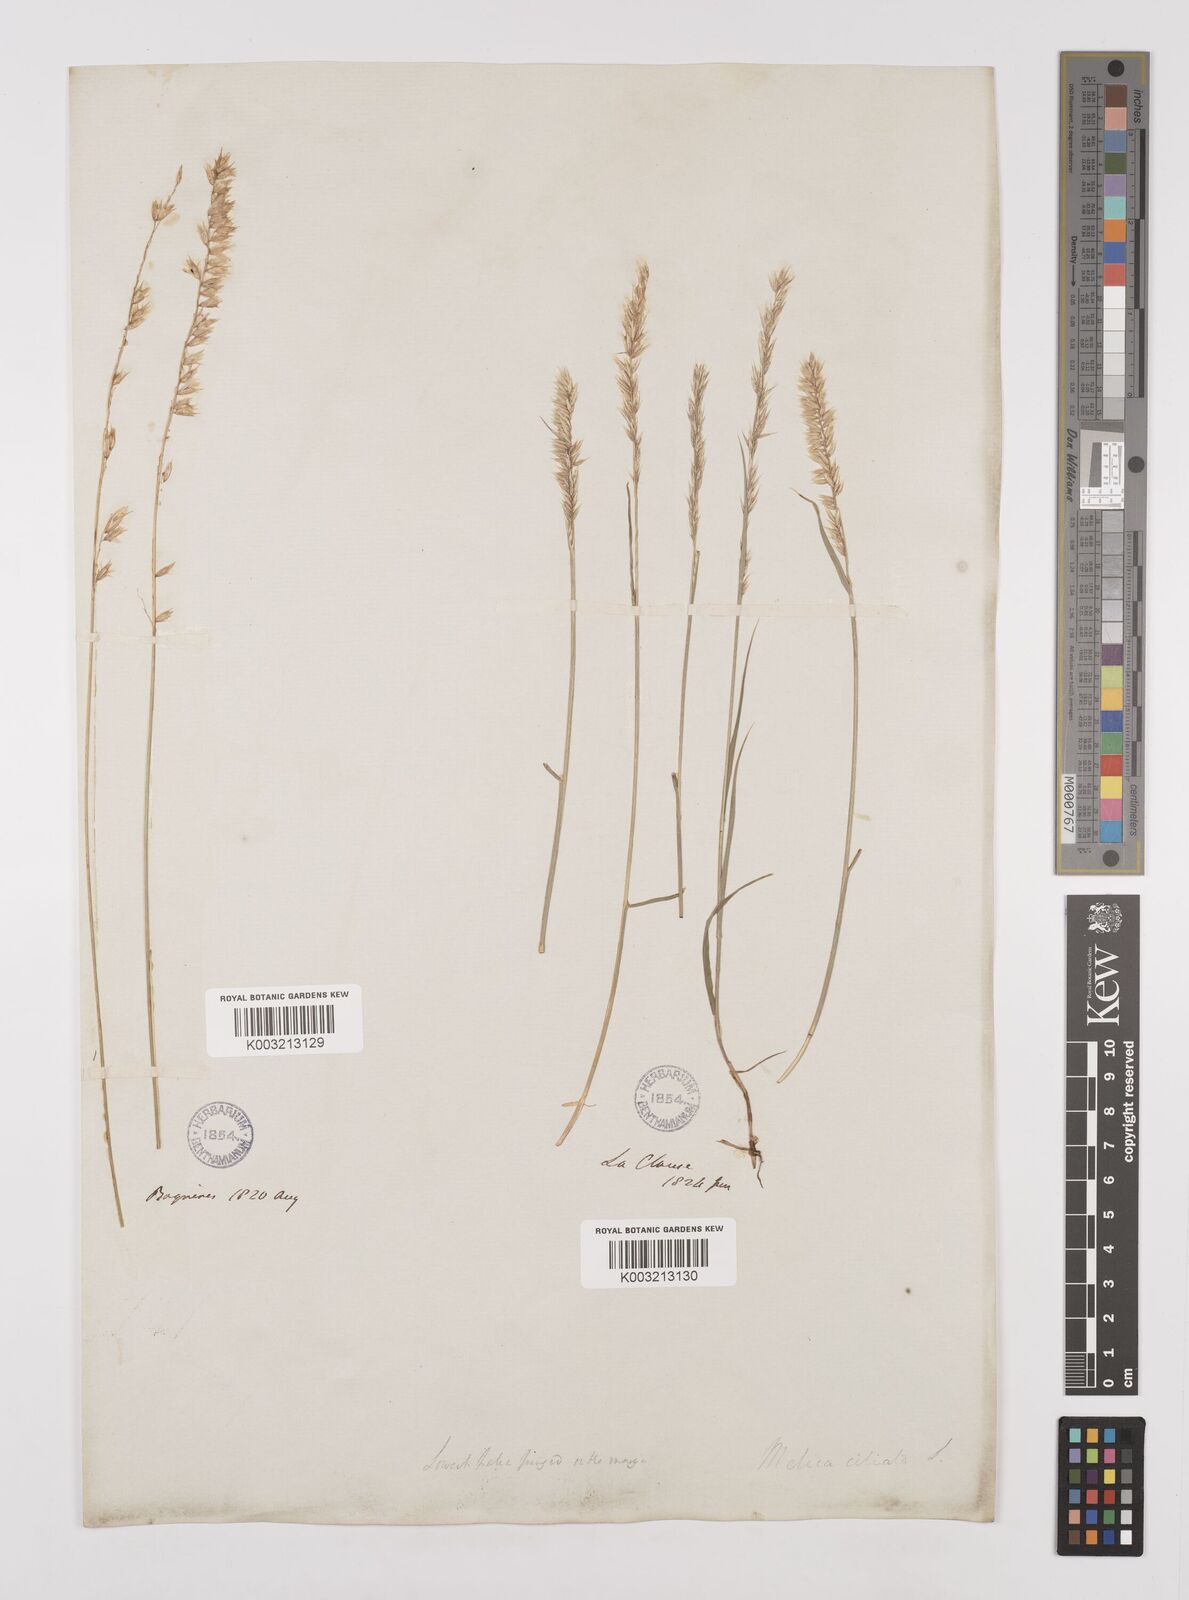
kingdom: Plantae
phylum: Tracheophyta
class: Liliopsida
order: Poales
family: Poaceae
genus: Melica
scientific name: Melica ciliata
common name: Hairy melicgrass
